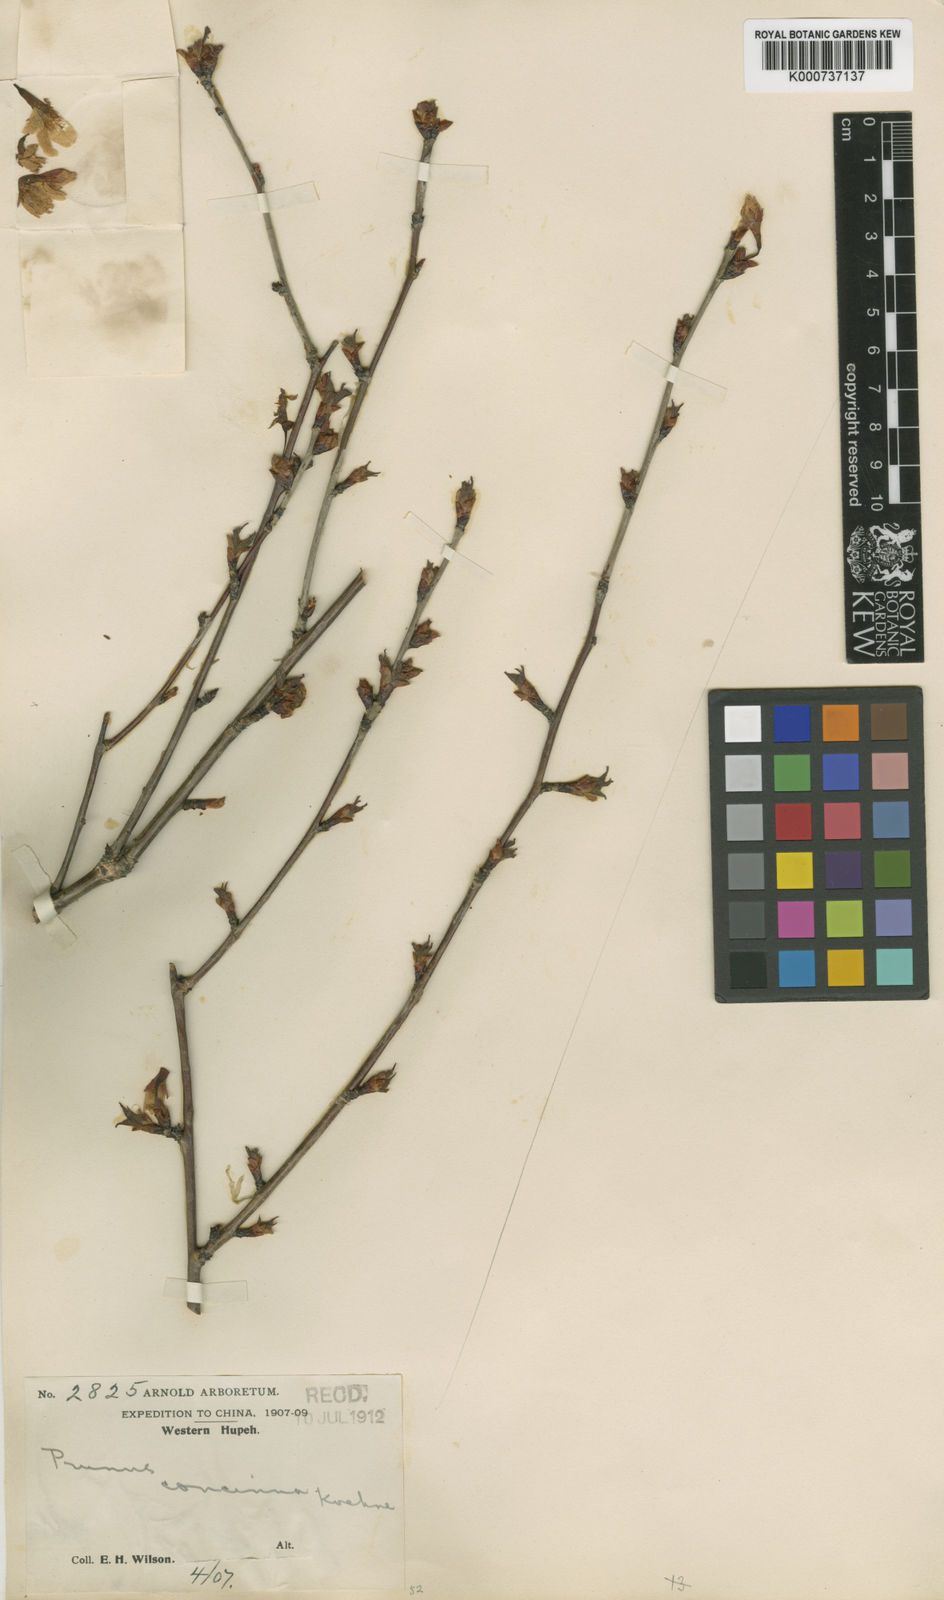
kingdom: Plantae
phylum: Tracheophyta
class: Magnoliopsida
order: Rosales
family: Rosaceae
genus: Prunus
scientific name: Prunus leveilleana
